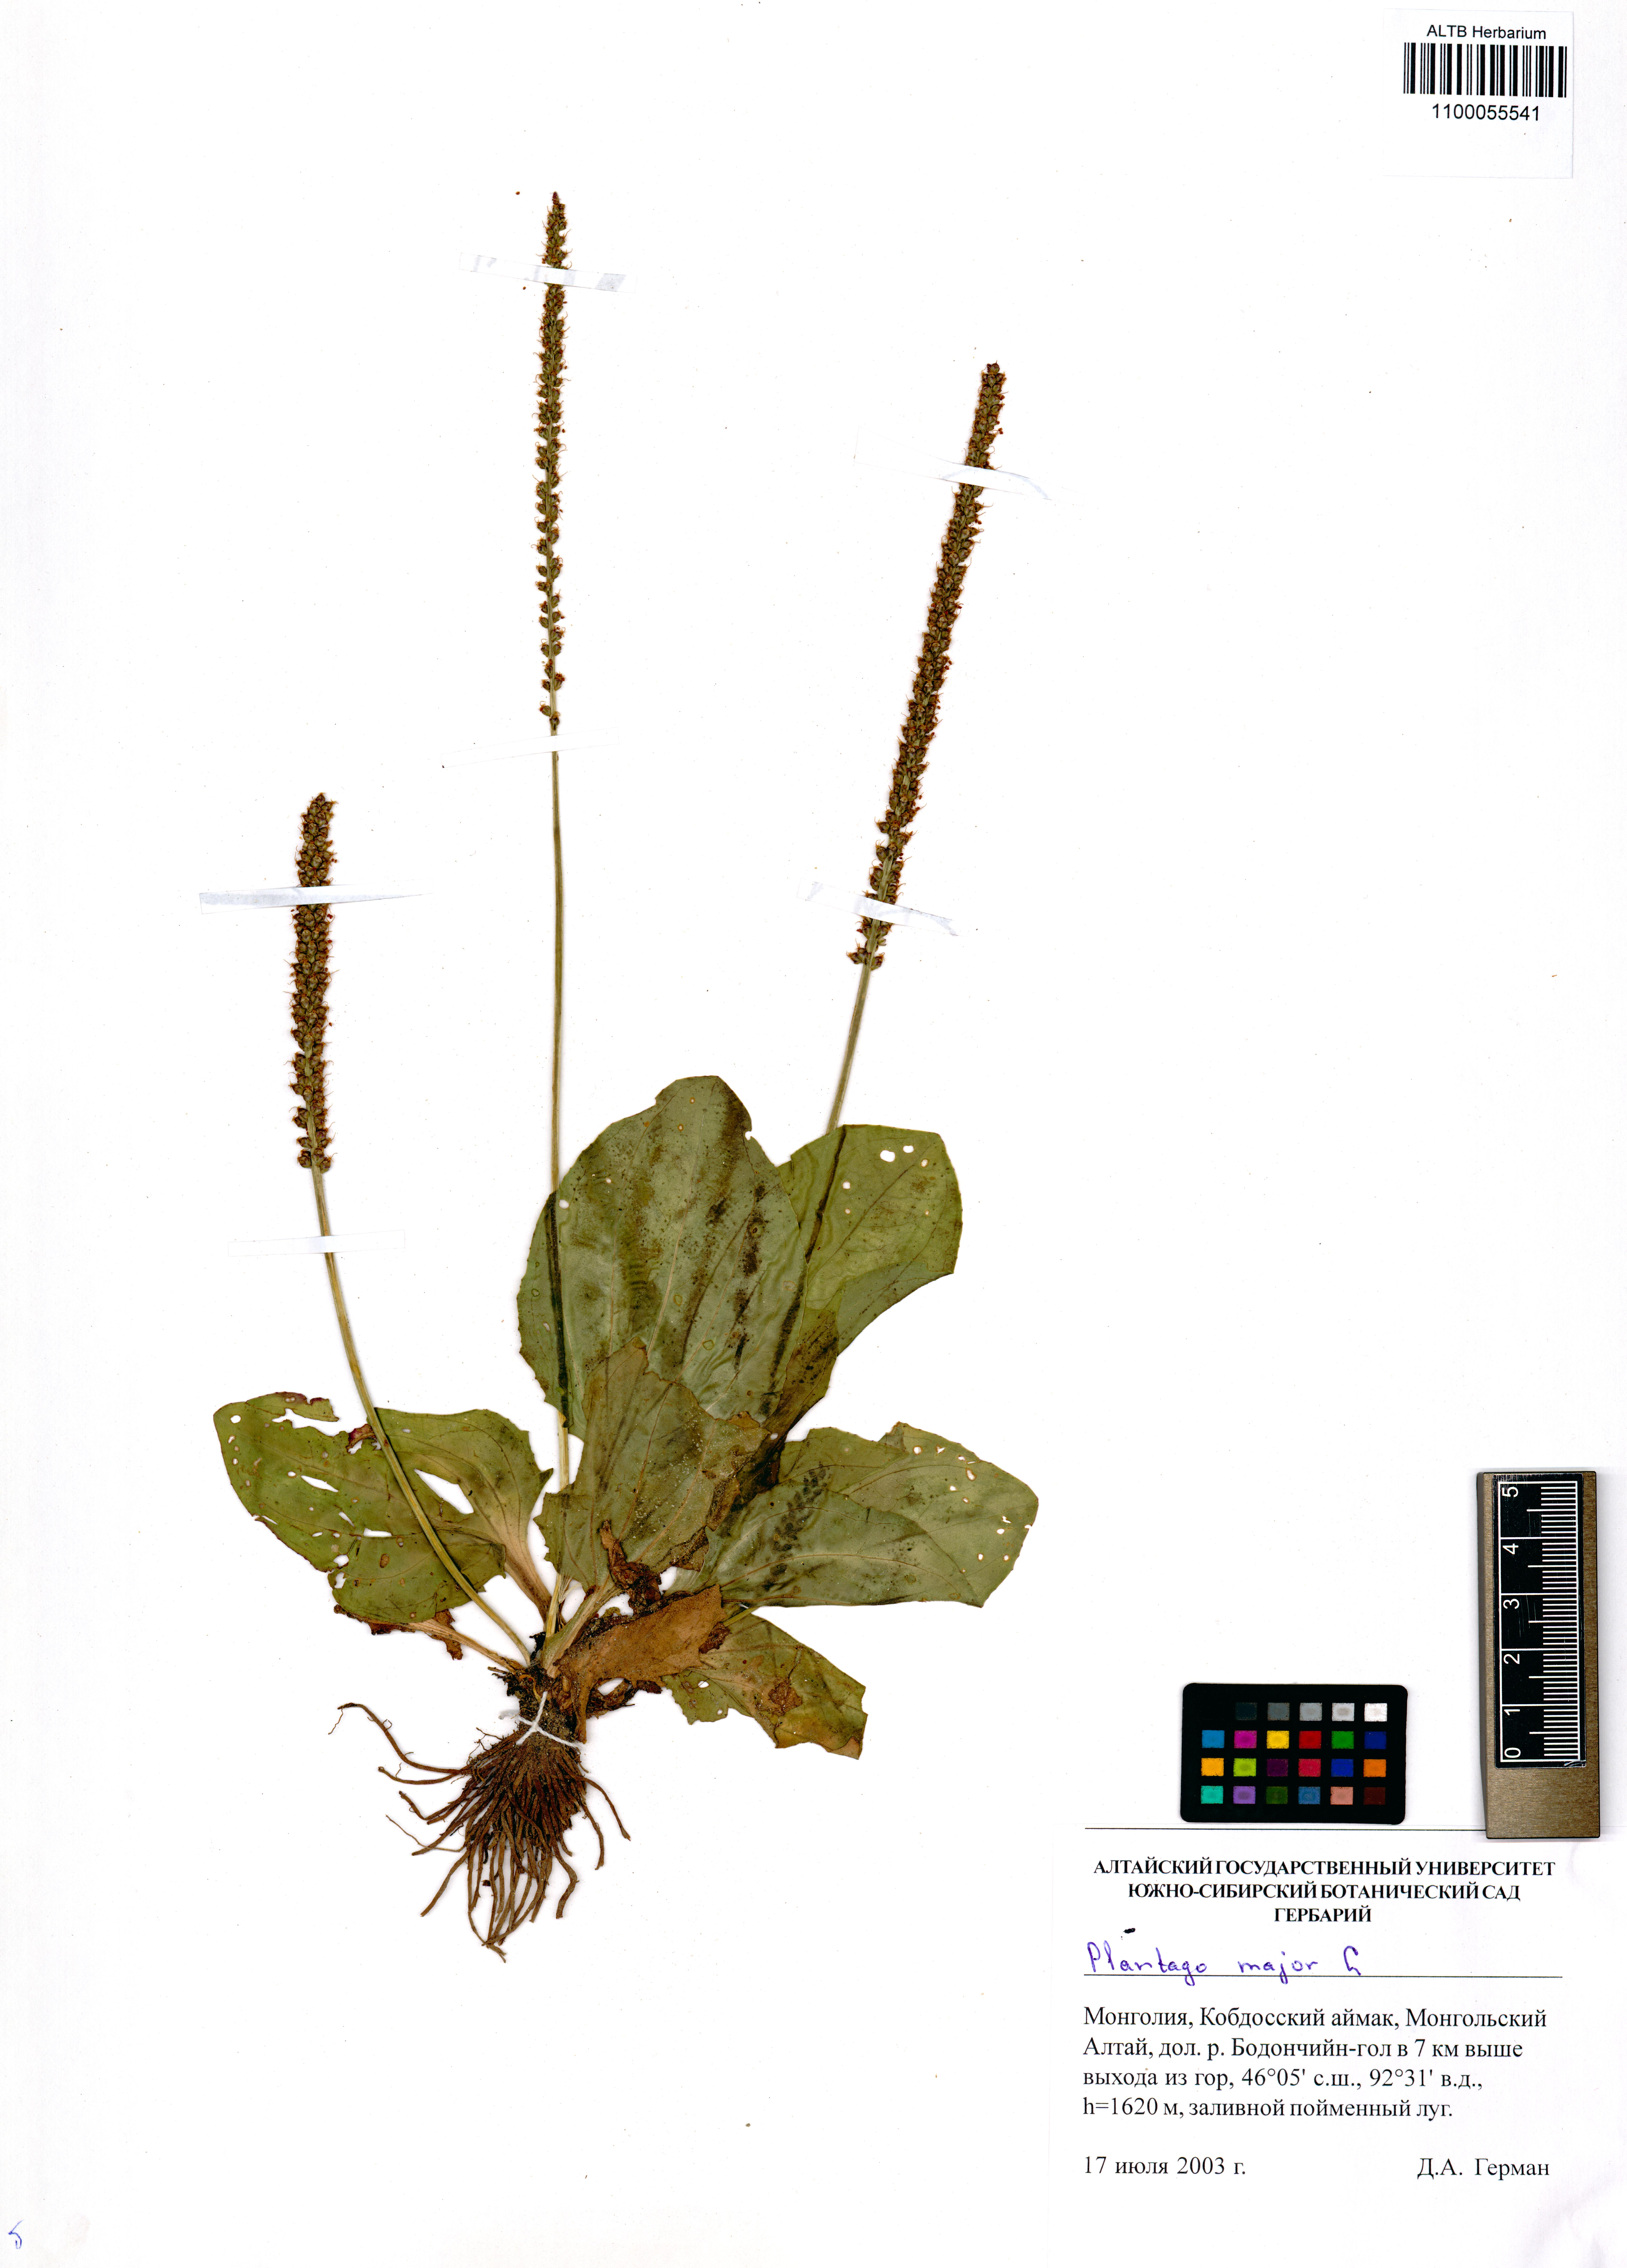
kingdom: Plantae
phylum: Tracheophyta
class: Magnoliopsida
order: Lamiales
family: Plantaginaceae
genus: Plantago
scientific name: Plantago major
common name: Common plantain
